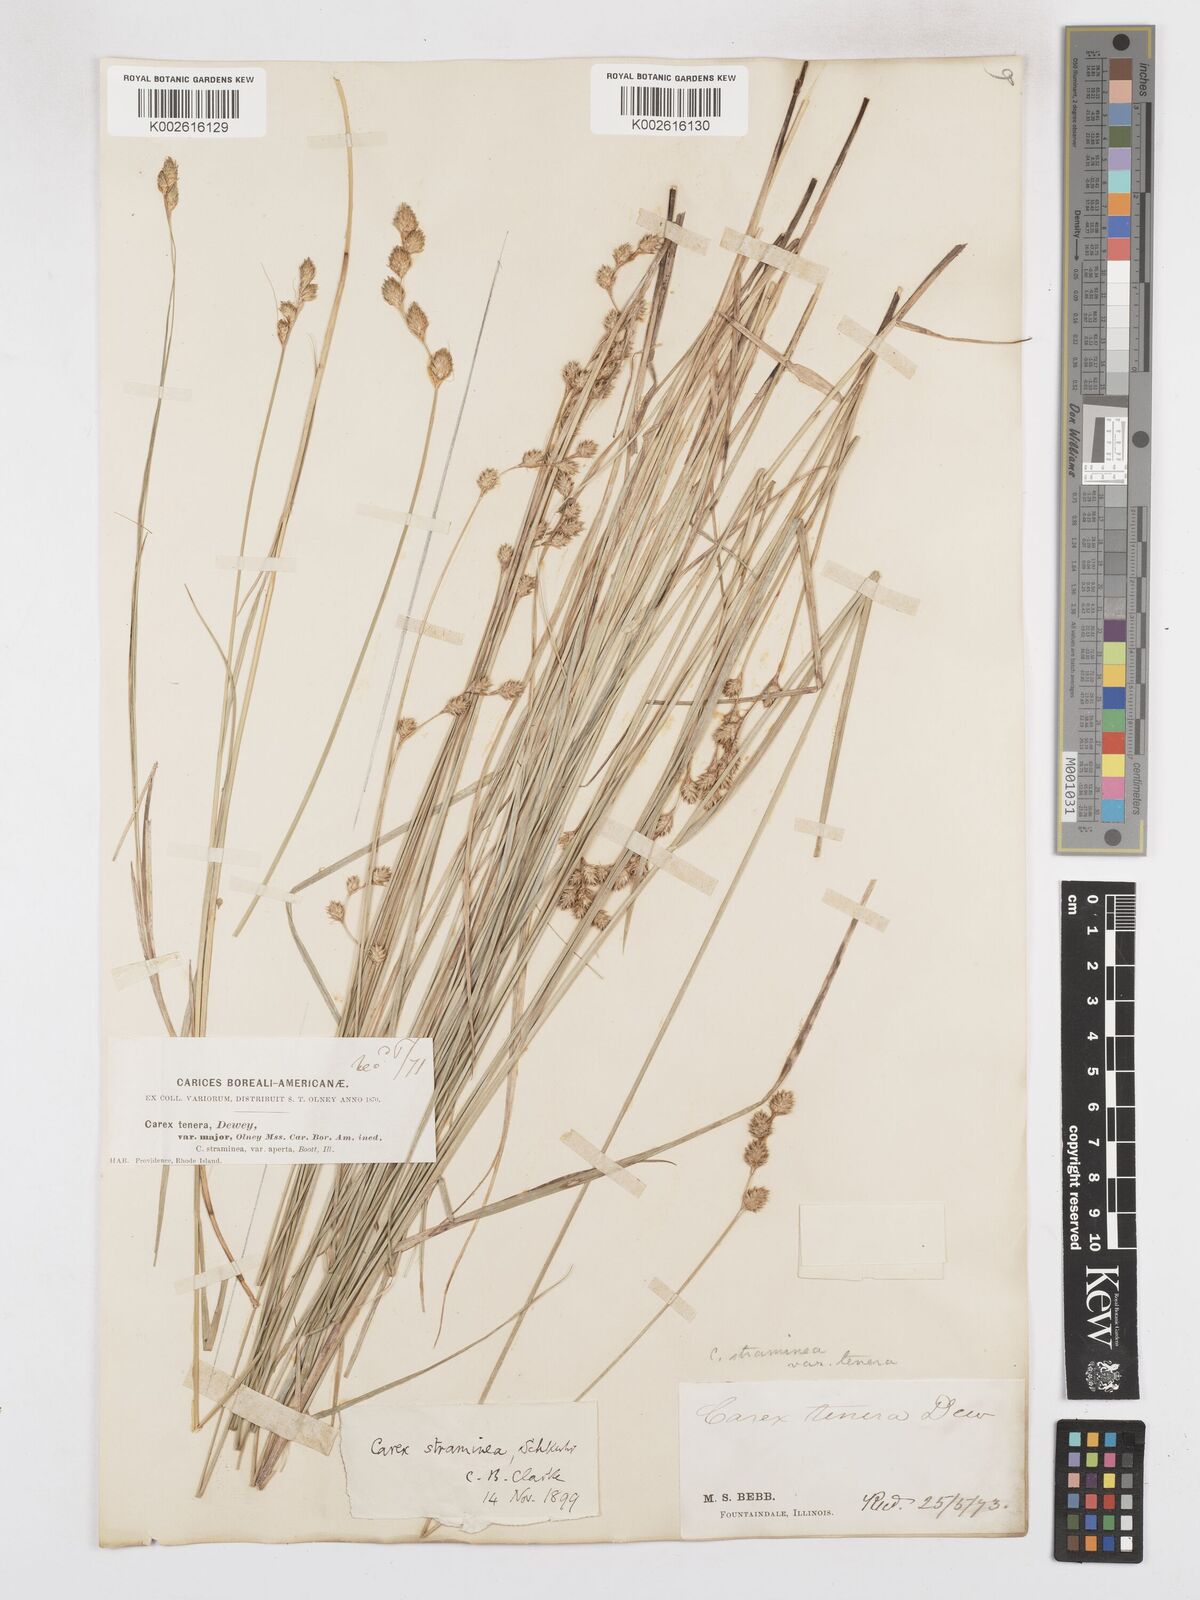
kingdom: Plantae
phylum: Tracheophyta
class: Liliopsida
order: Poales
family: Cyperaceae
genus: Carex
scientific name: Carex brevior
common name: Brevior sedge
